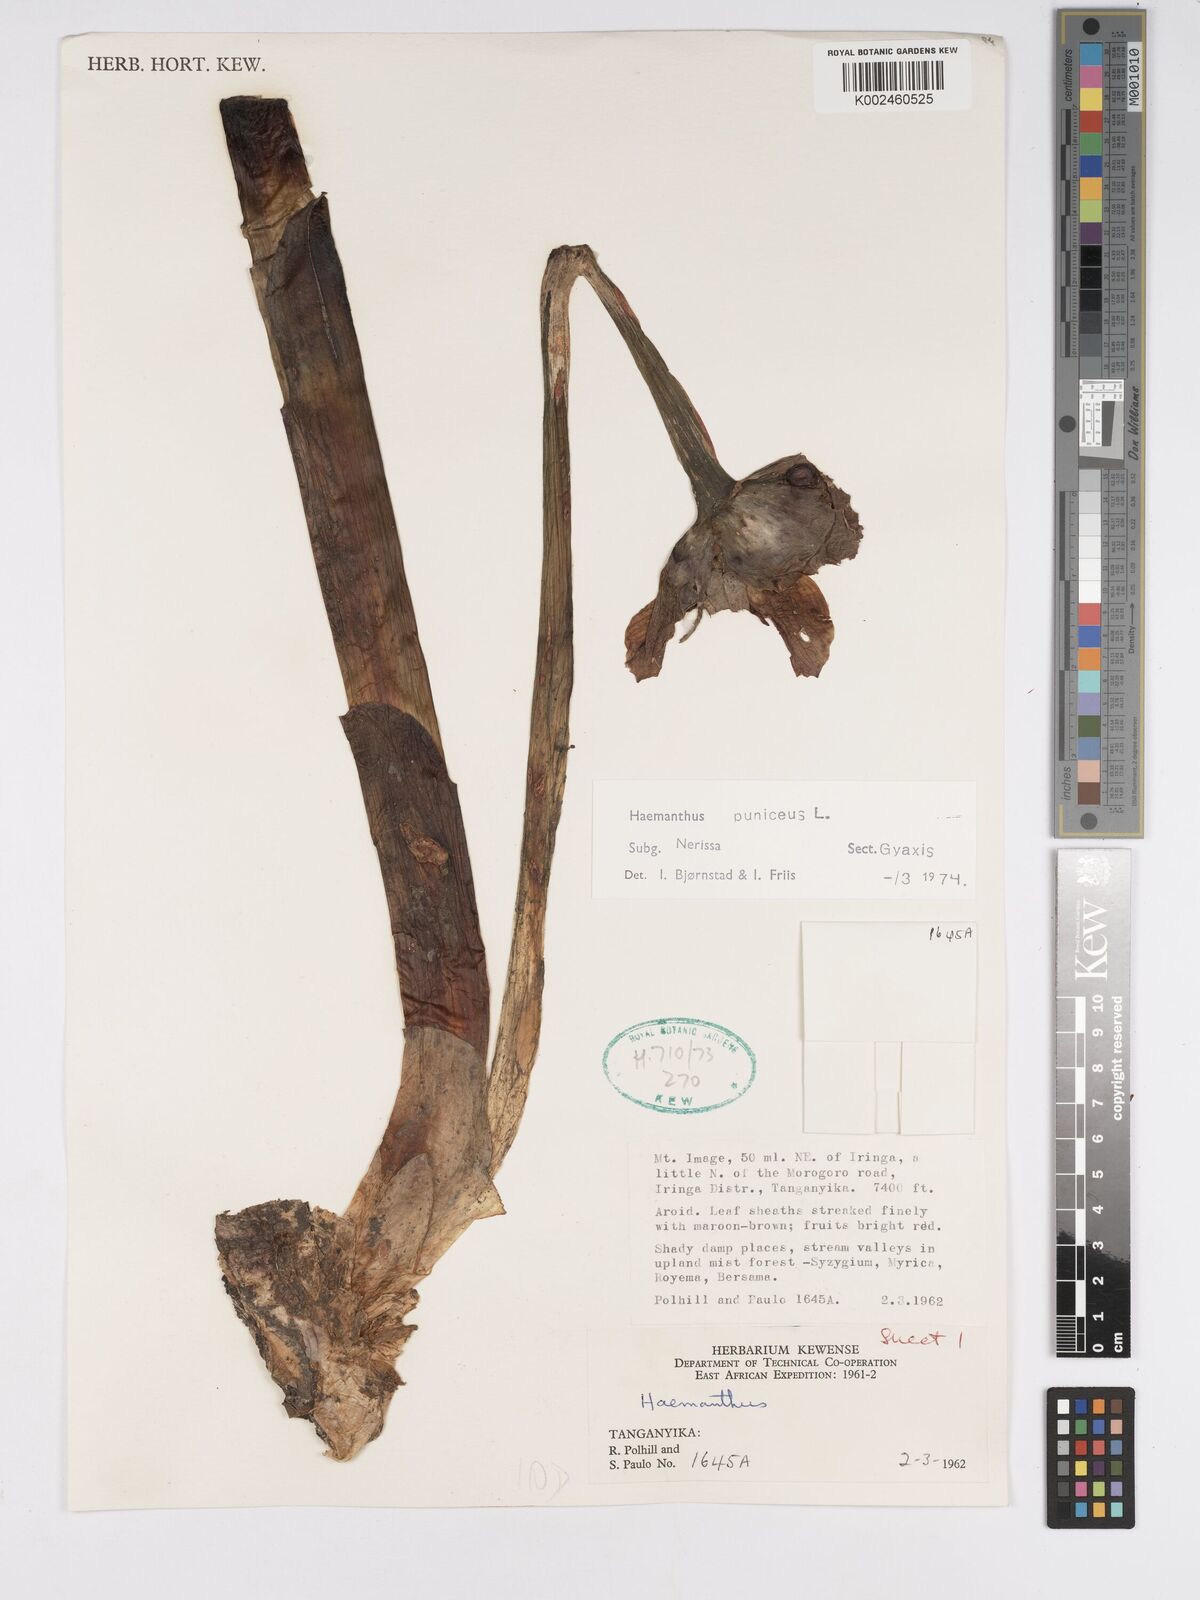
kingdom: Plantae
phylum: Tracheophyta
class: Liliopsida
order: Asparagales
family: Amaryllidaceae
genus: Scadoxus
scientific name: Scadoxus puniceus
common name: Royal-paintbrush
